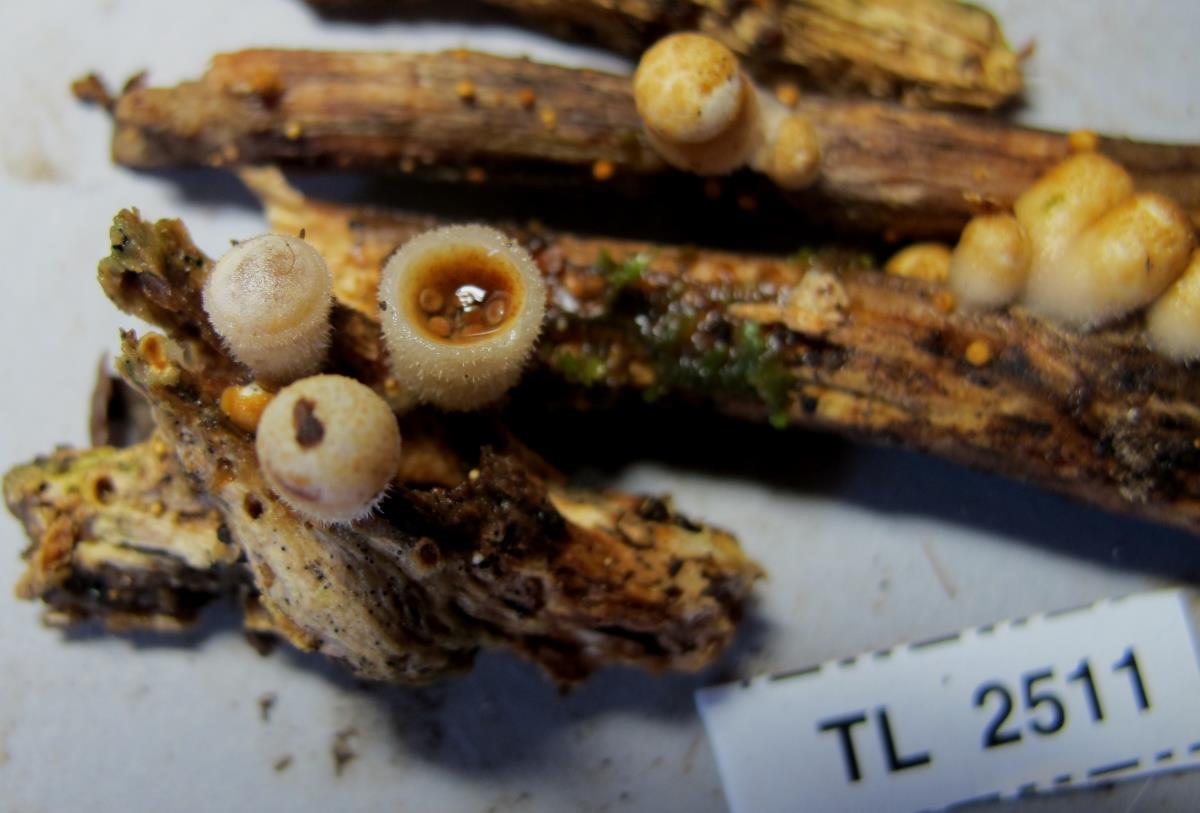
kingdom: Fungi
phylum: Basidiomycota
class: Agaricomycetes
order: Agaricales
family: Agaricaceae
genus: Nidula
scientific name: Nidula candida
